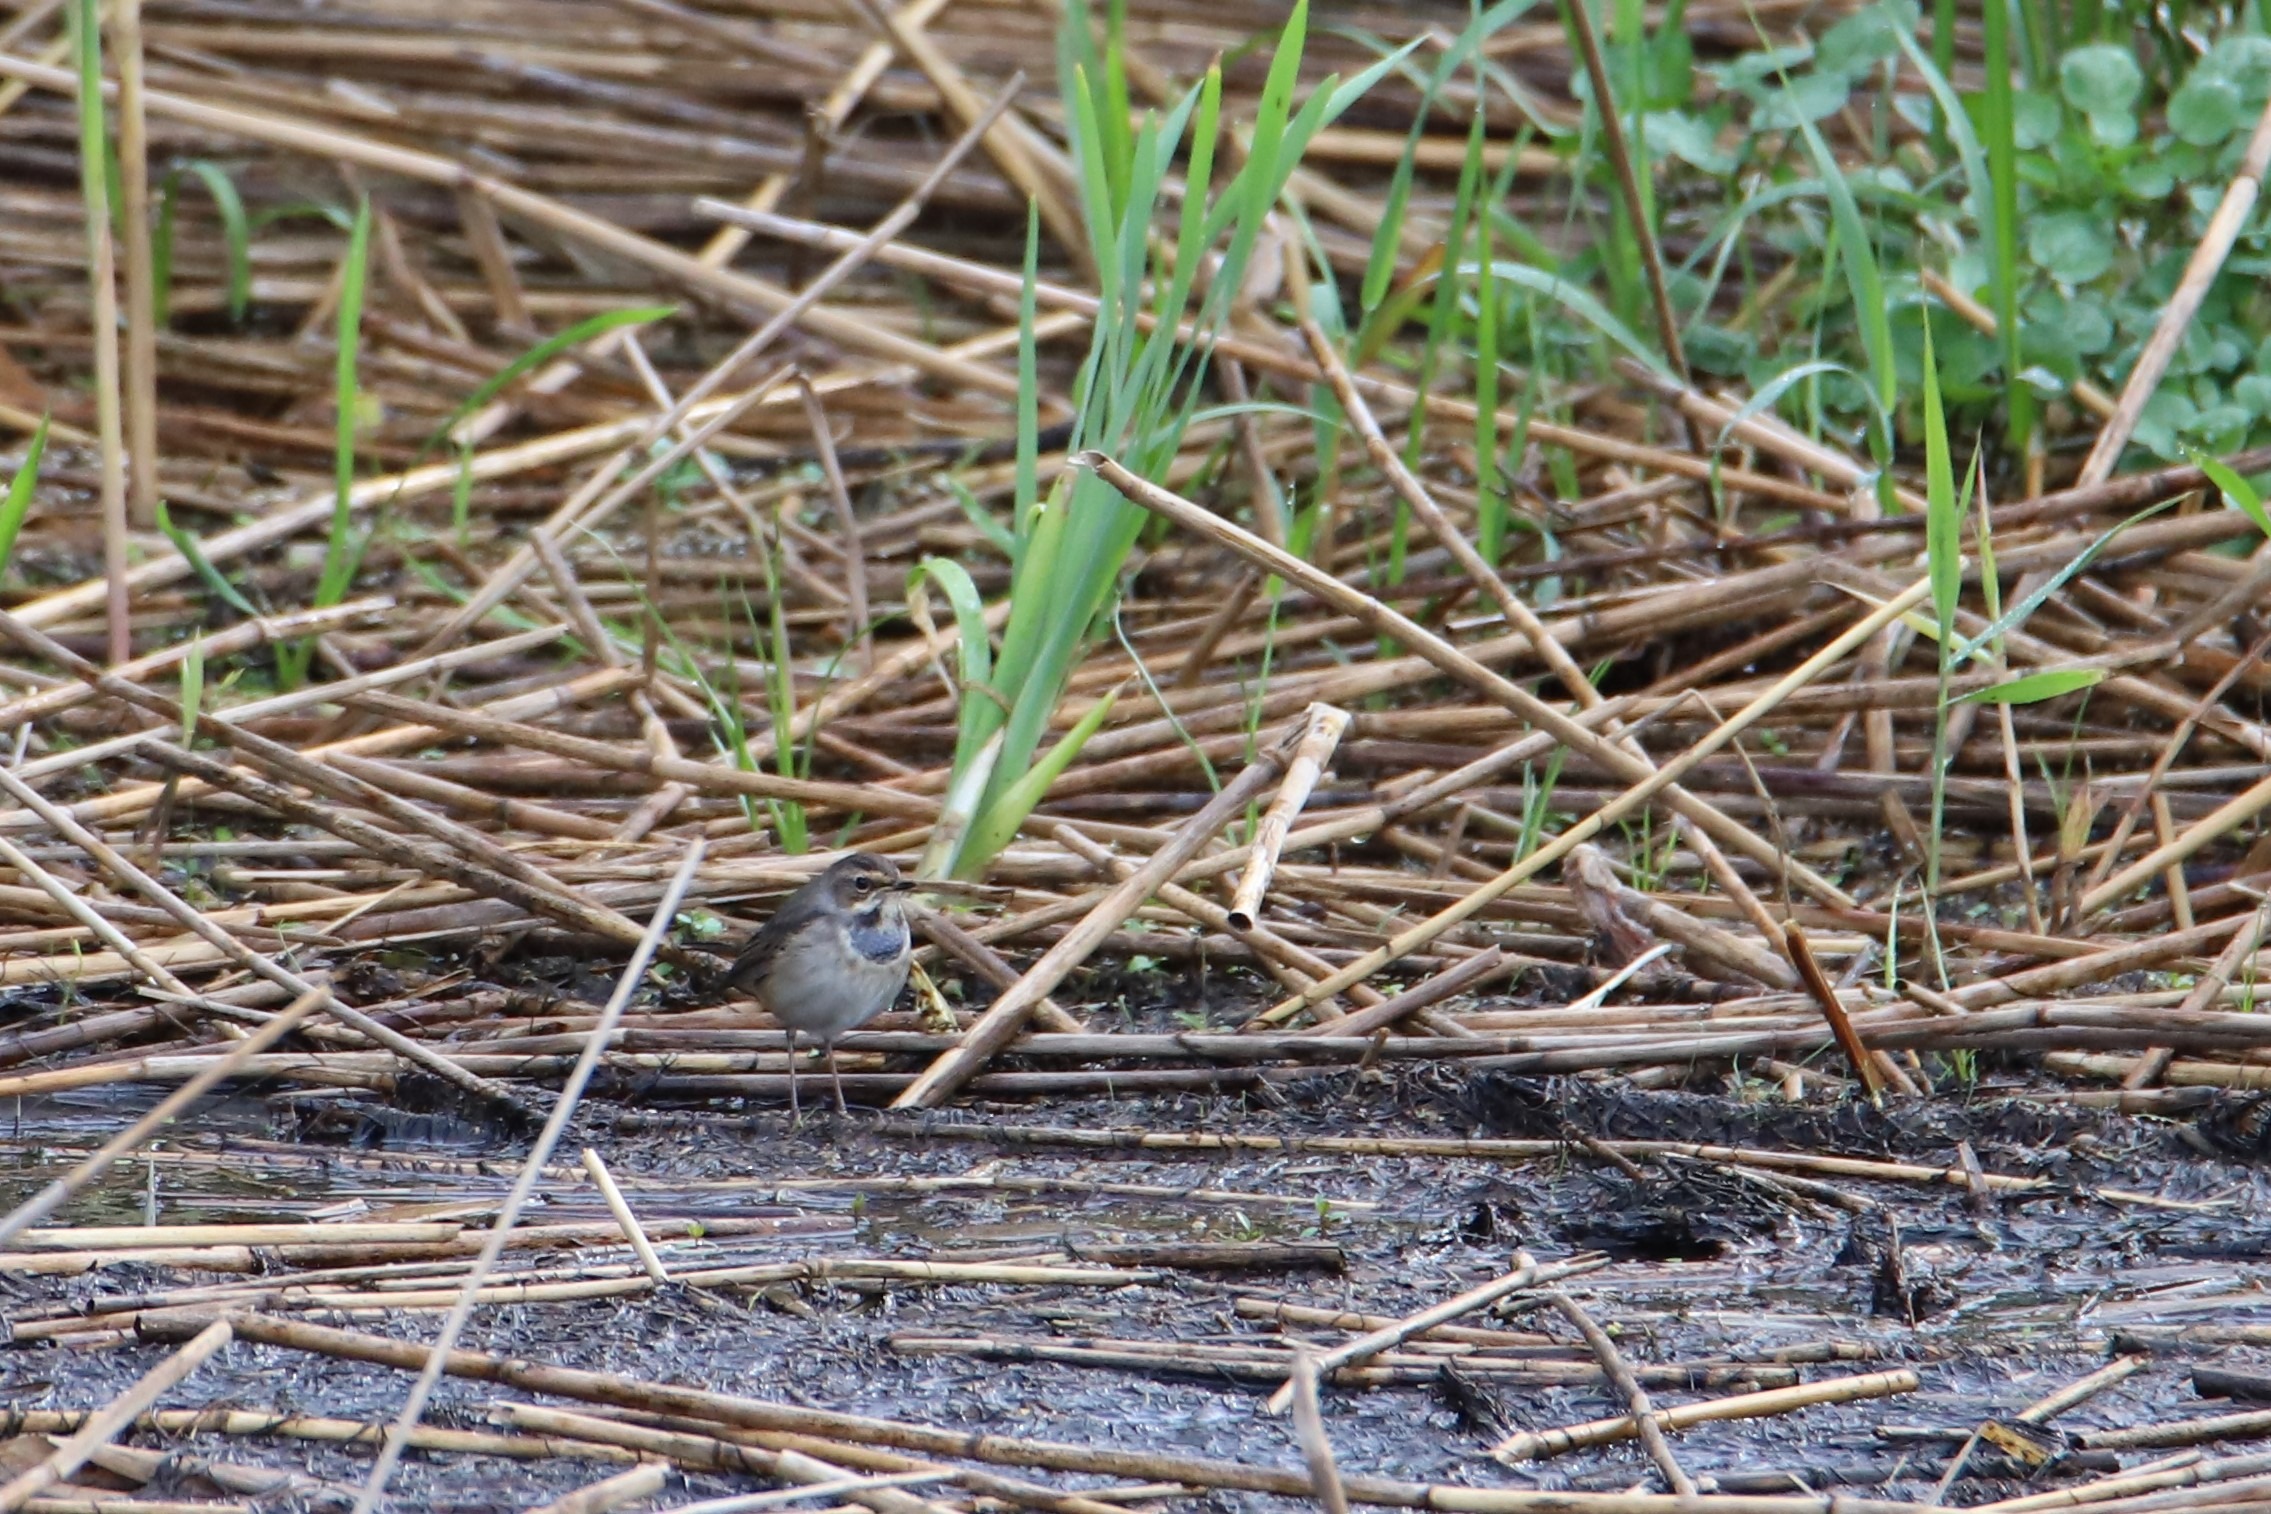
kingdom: Animalia
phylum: Chordata
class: Aves
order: Passeriformes
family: Muscicapidae
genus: Luscinia
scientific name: Luscinia svecica
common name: Blåhals
